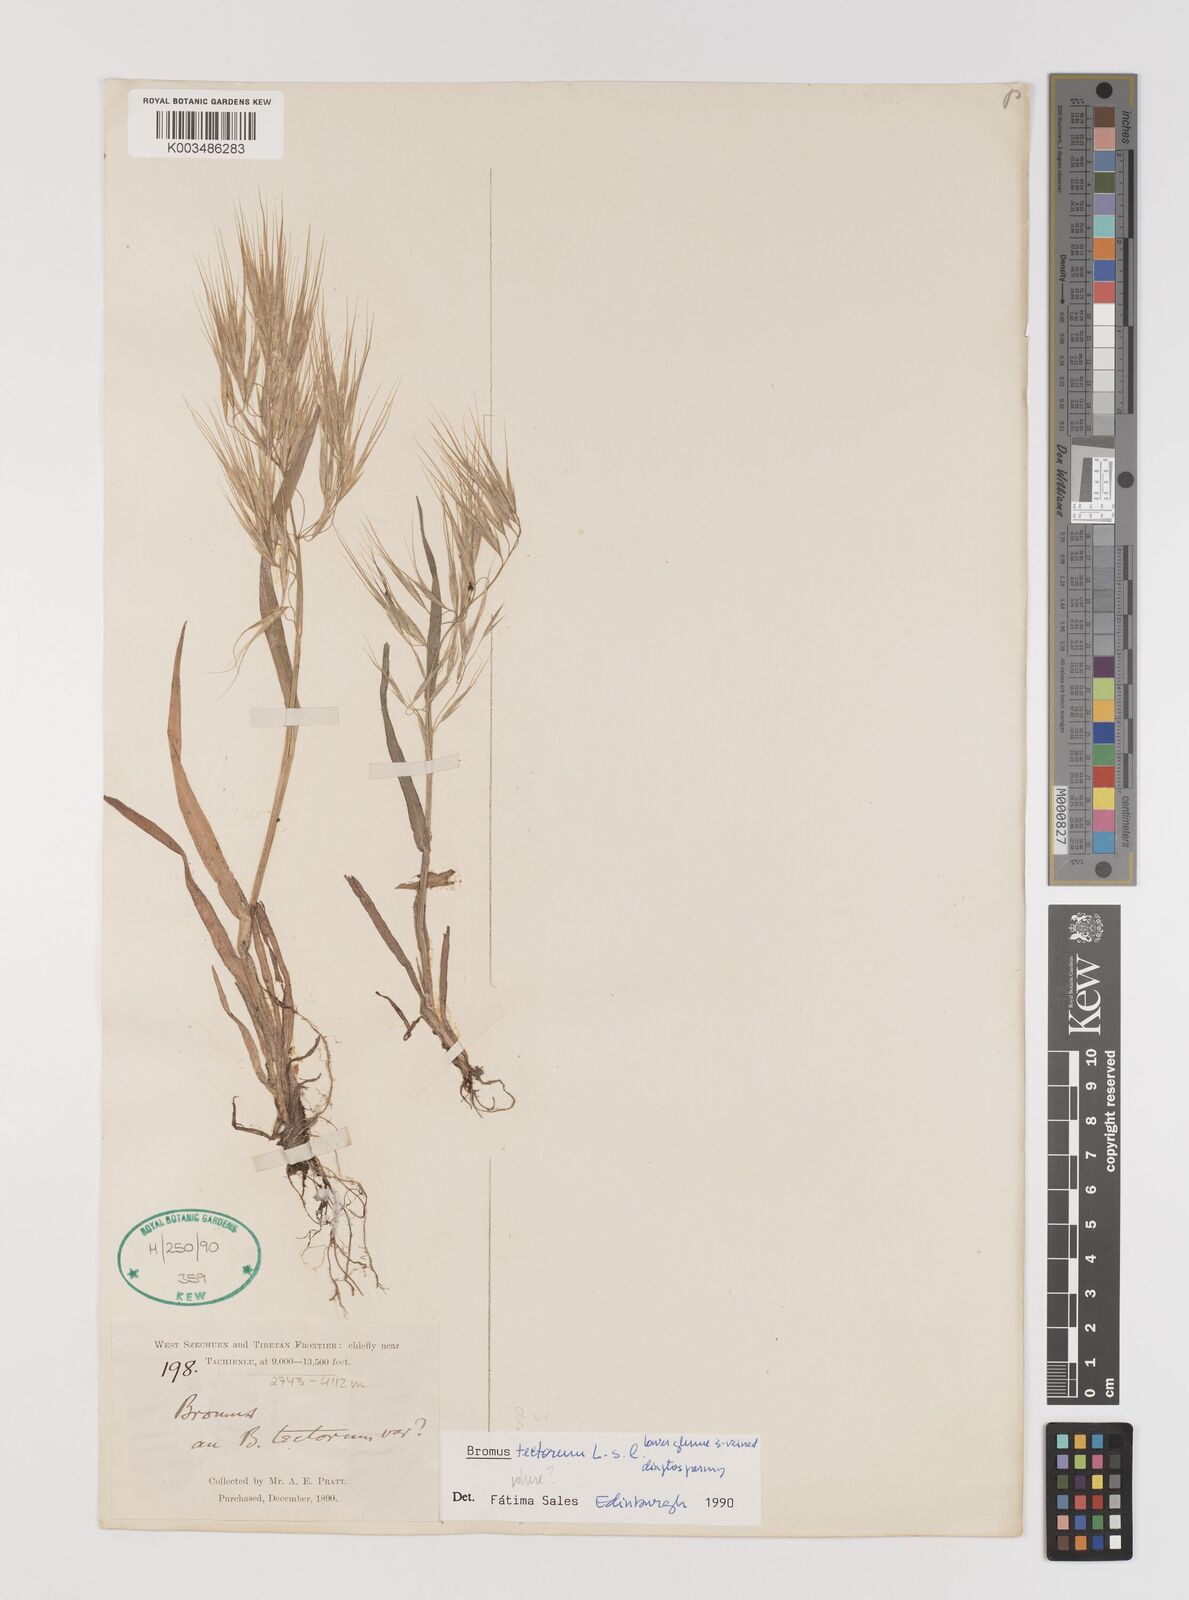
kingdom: Plantae
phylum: Tracheophyta
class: Liliopsida
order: Poales
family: Poaceae
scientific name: Poaceae
